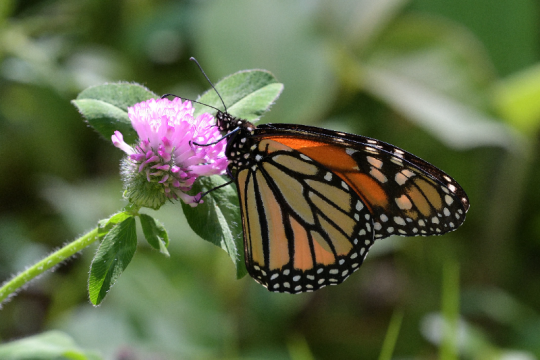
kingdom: Animalia
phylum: Arthropoda
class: Insecta
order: Lepidoptera
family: Nymphalidae
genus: Danaus
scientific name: Danaus plexippus
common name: Monarch
